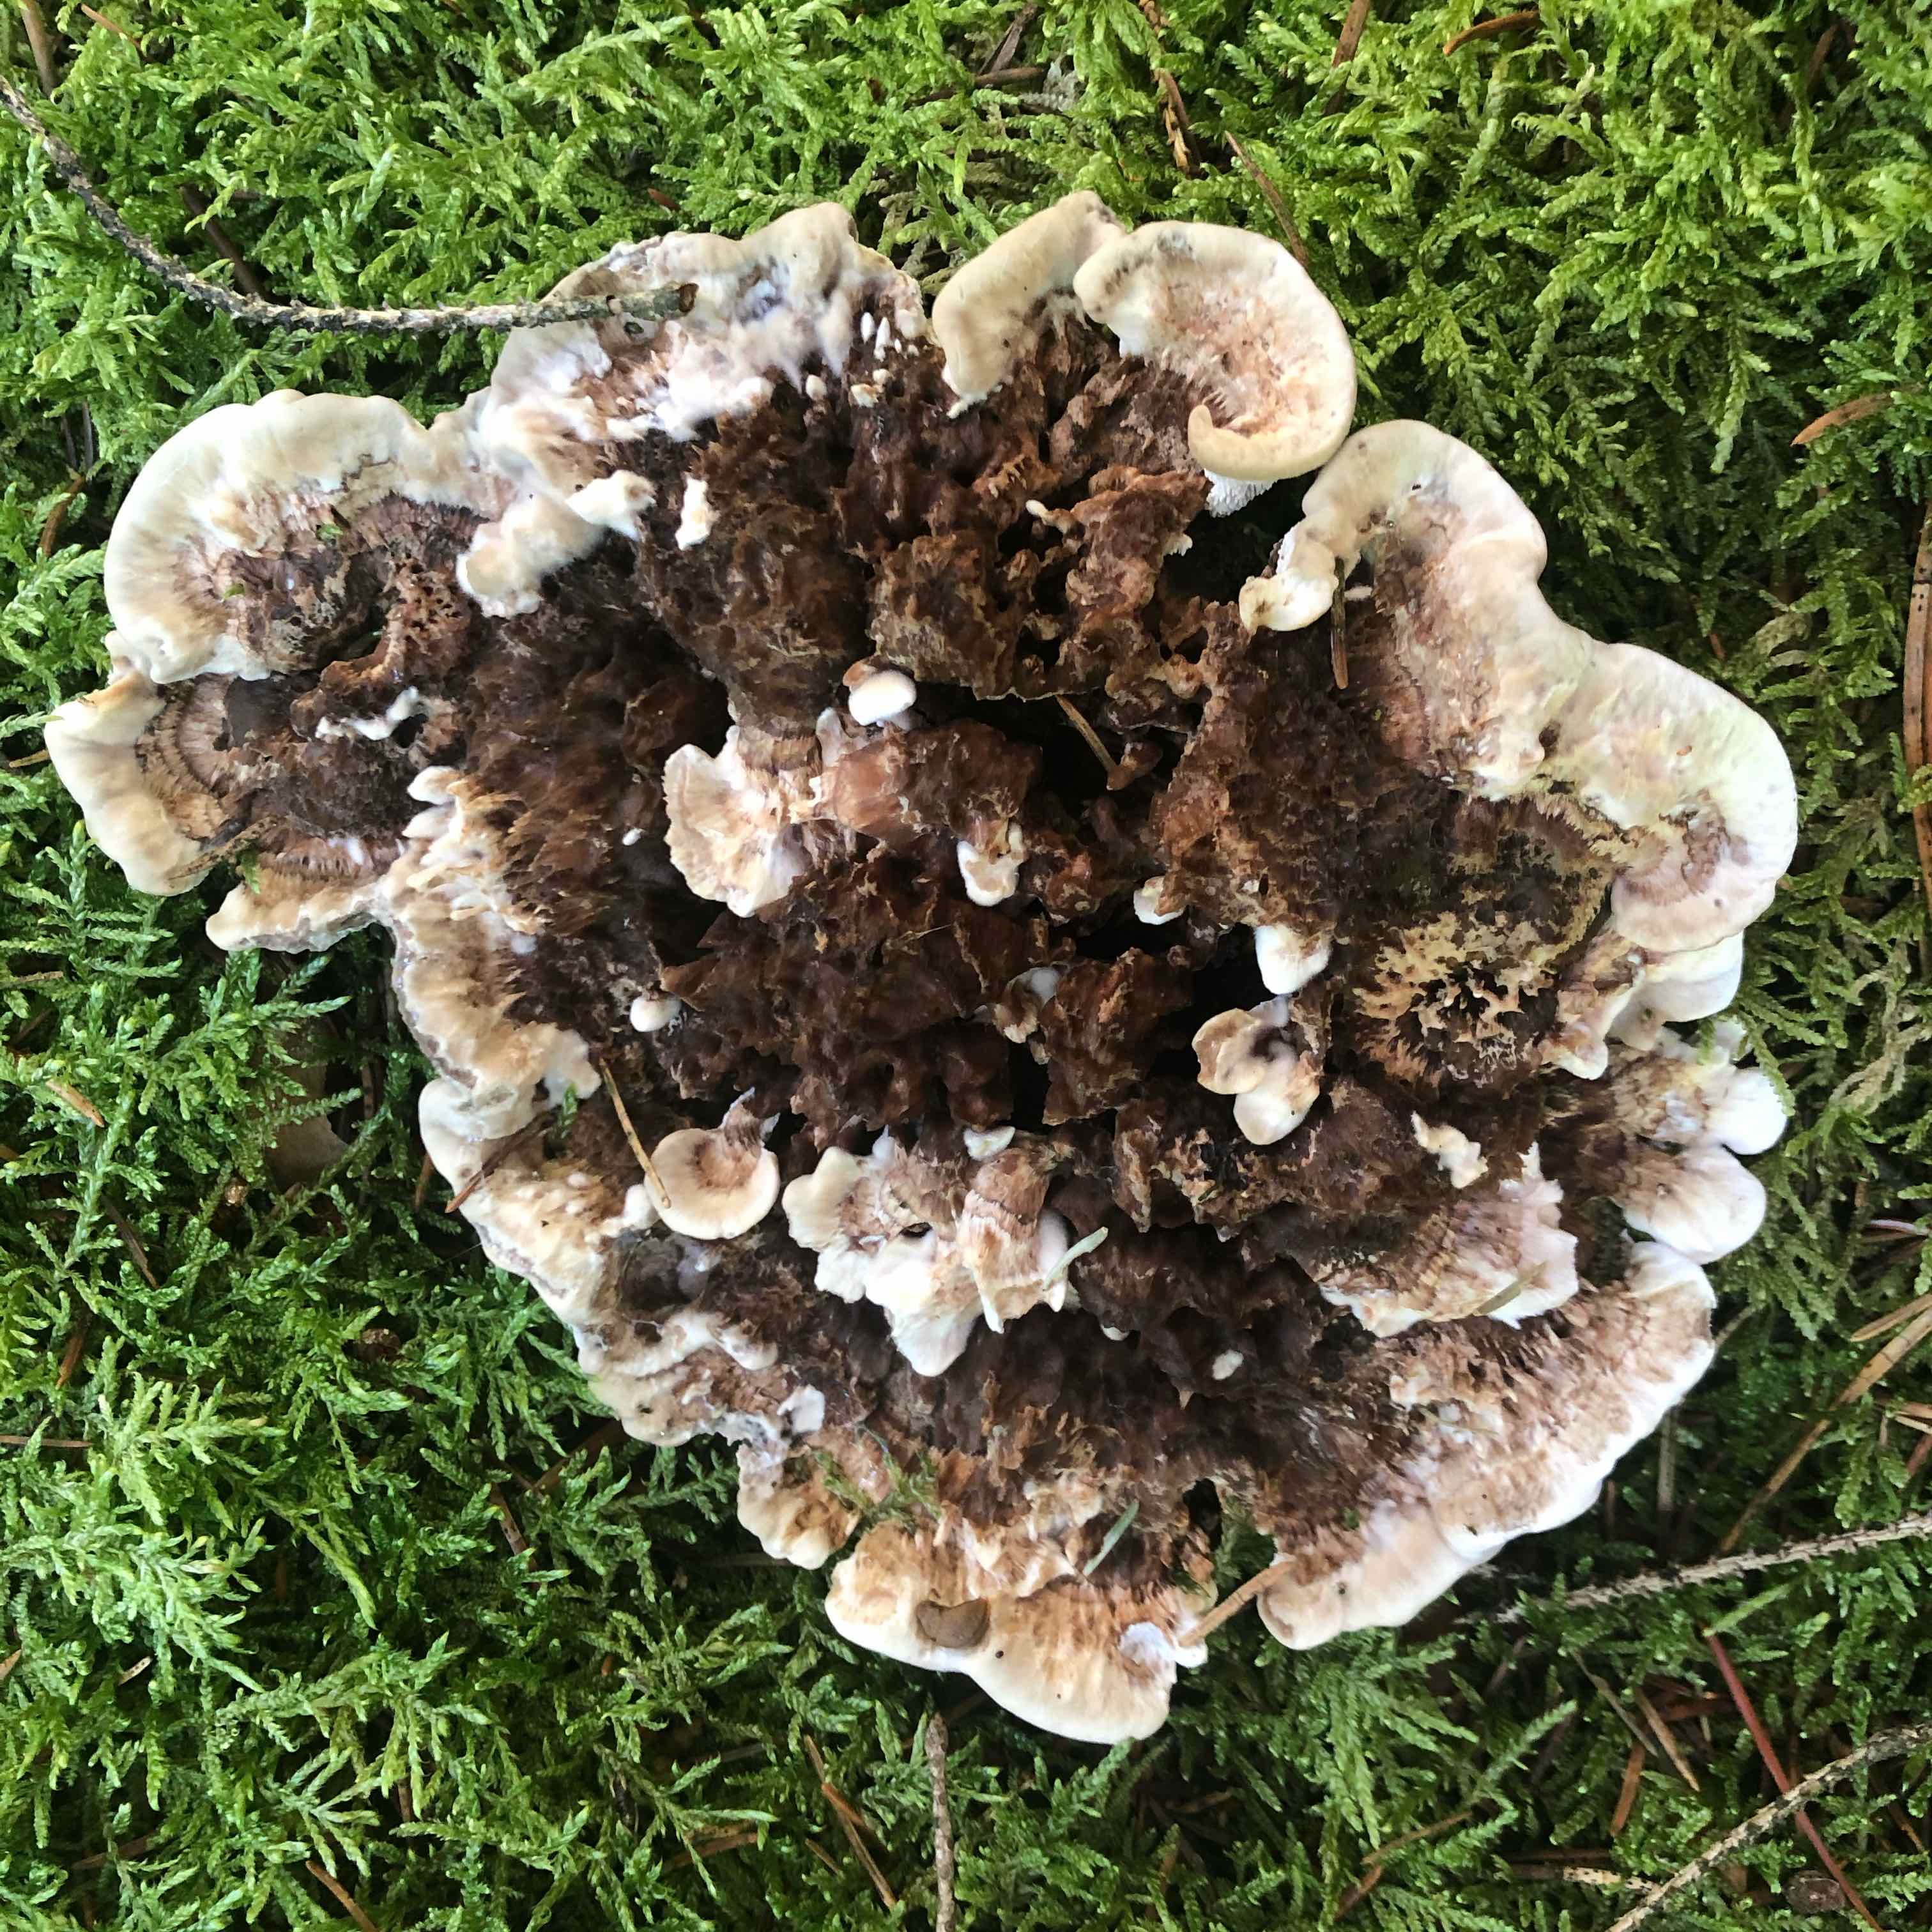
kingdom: Fungi
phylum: Basidiomycota
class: Agaricomycetes
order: Thelephorales
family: Thelephoraceae
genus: Phellodon
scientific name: Phellodon tomentosus
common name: vellugtende duftpigsvamp
